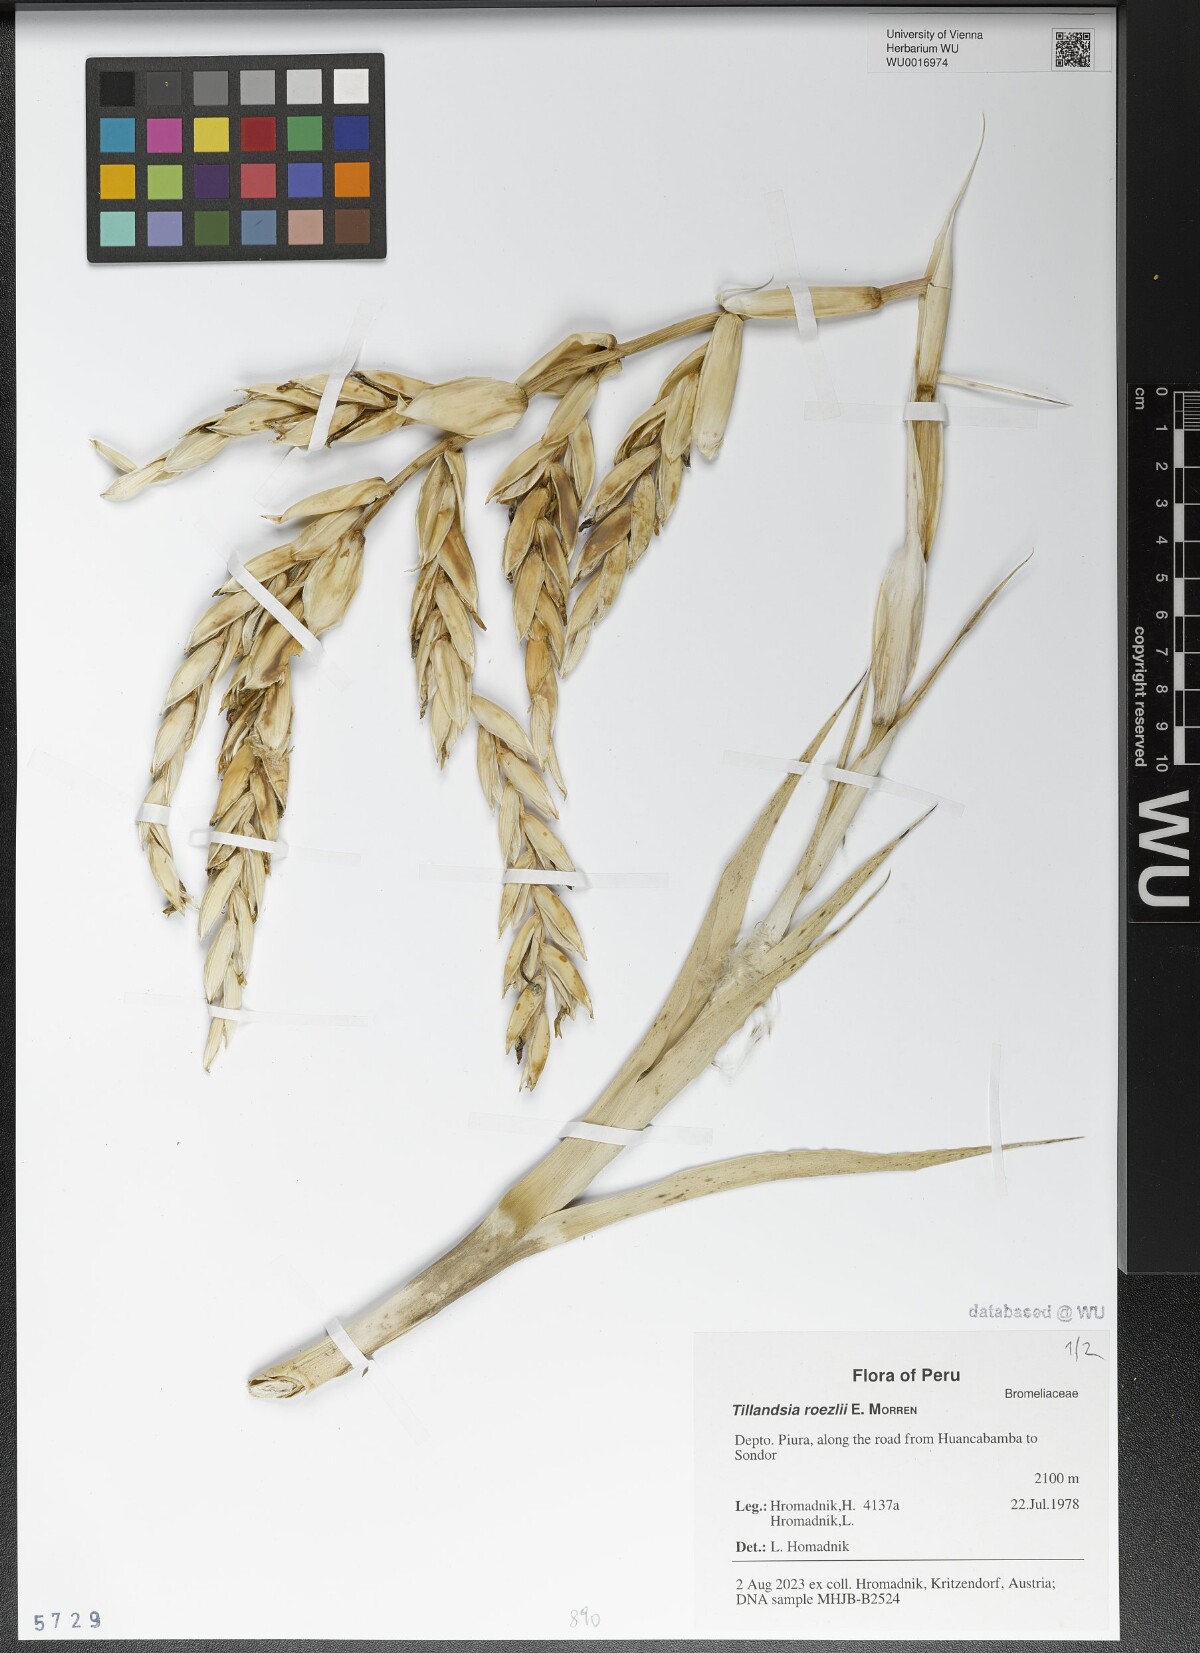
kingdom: Plantae
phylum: Tracheophyta
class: Liliopsida
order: Poales
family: Bromeliaceae
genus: Tillandsia
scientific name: Tillandsia roezlii
